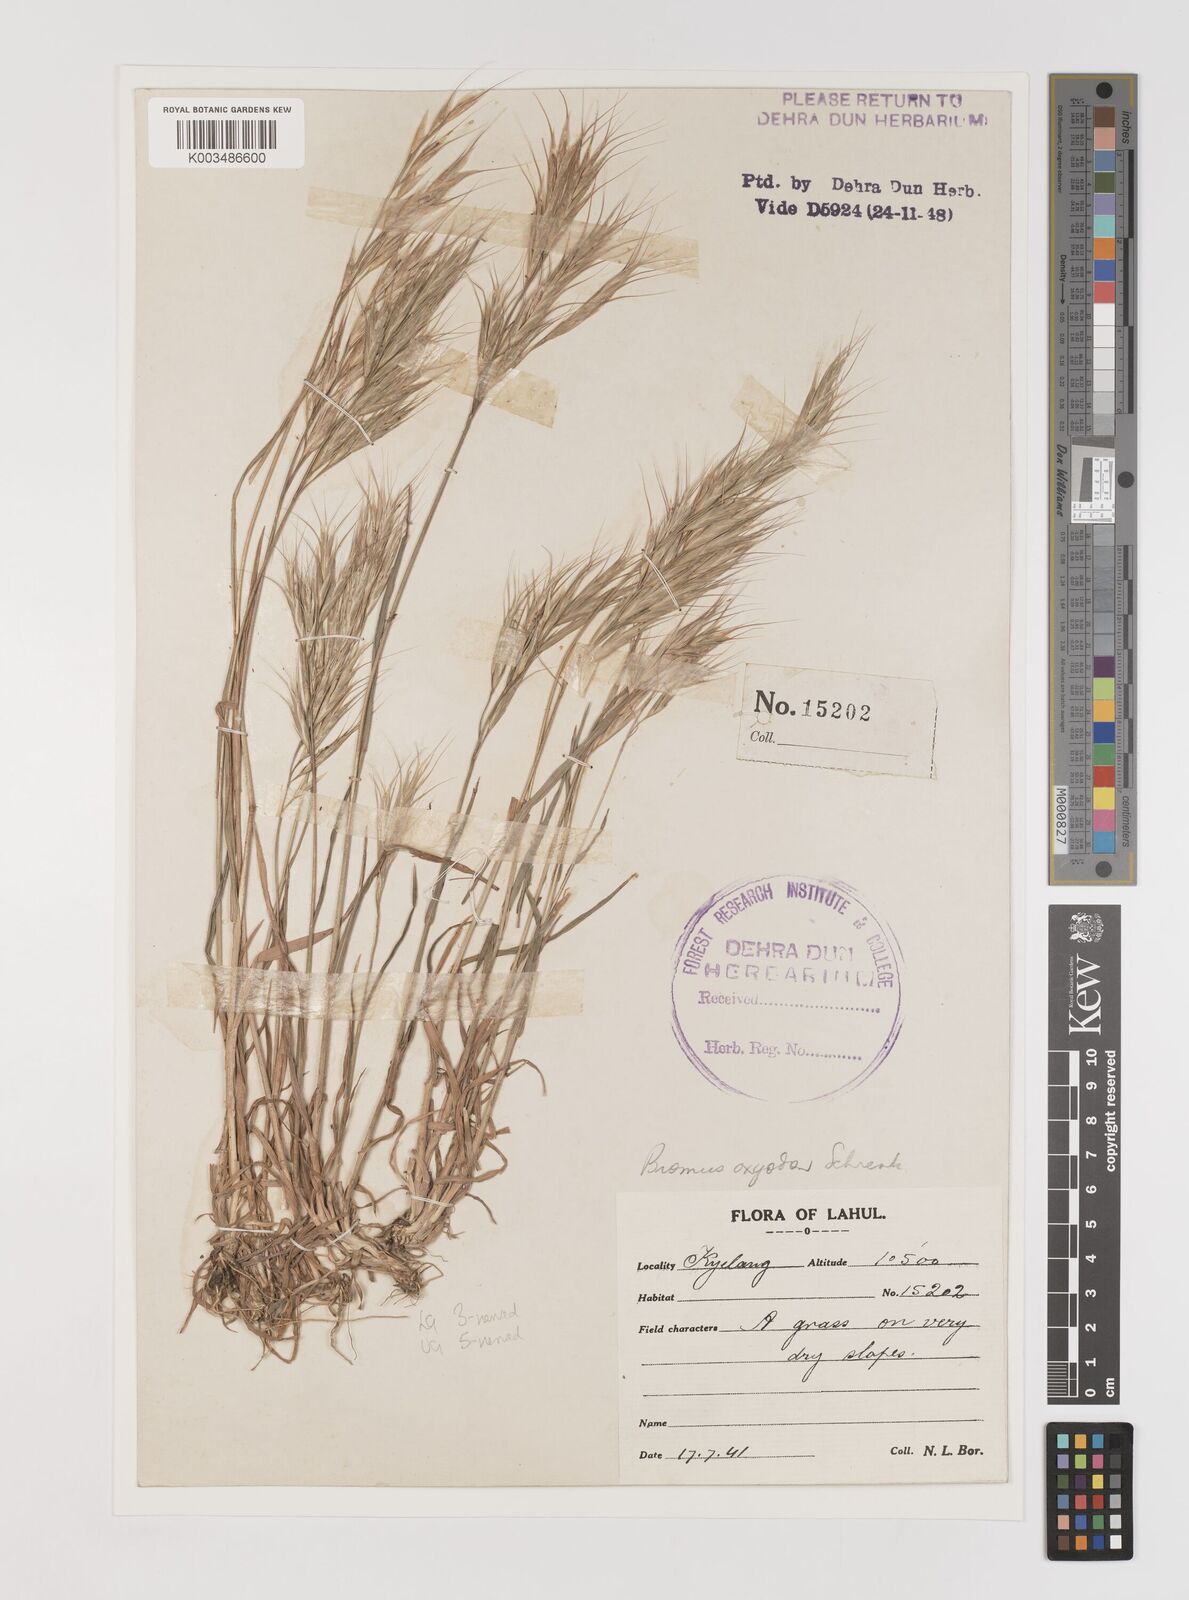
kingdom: Plantae
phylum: Tracheophyta
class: Liliopsida
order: Poales
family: Poaceae
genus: Bromus
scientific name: Bromus oxyodon
